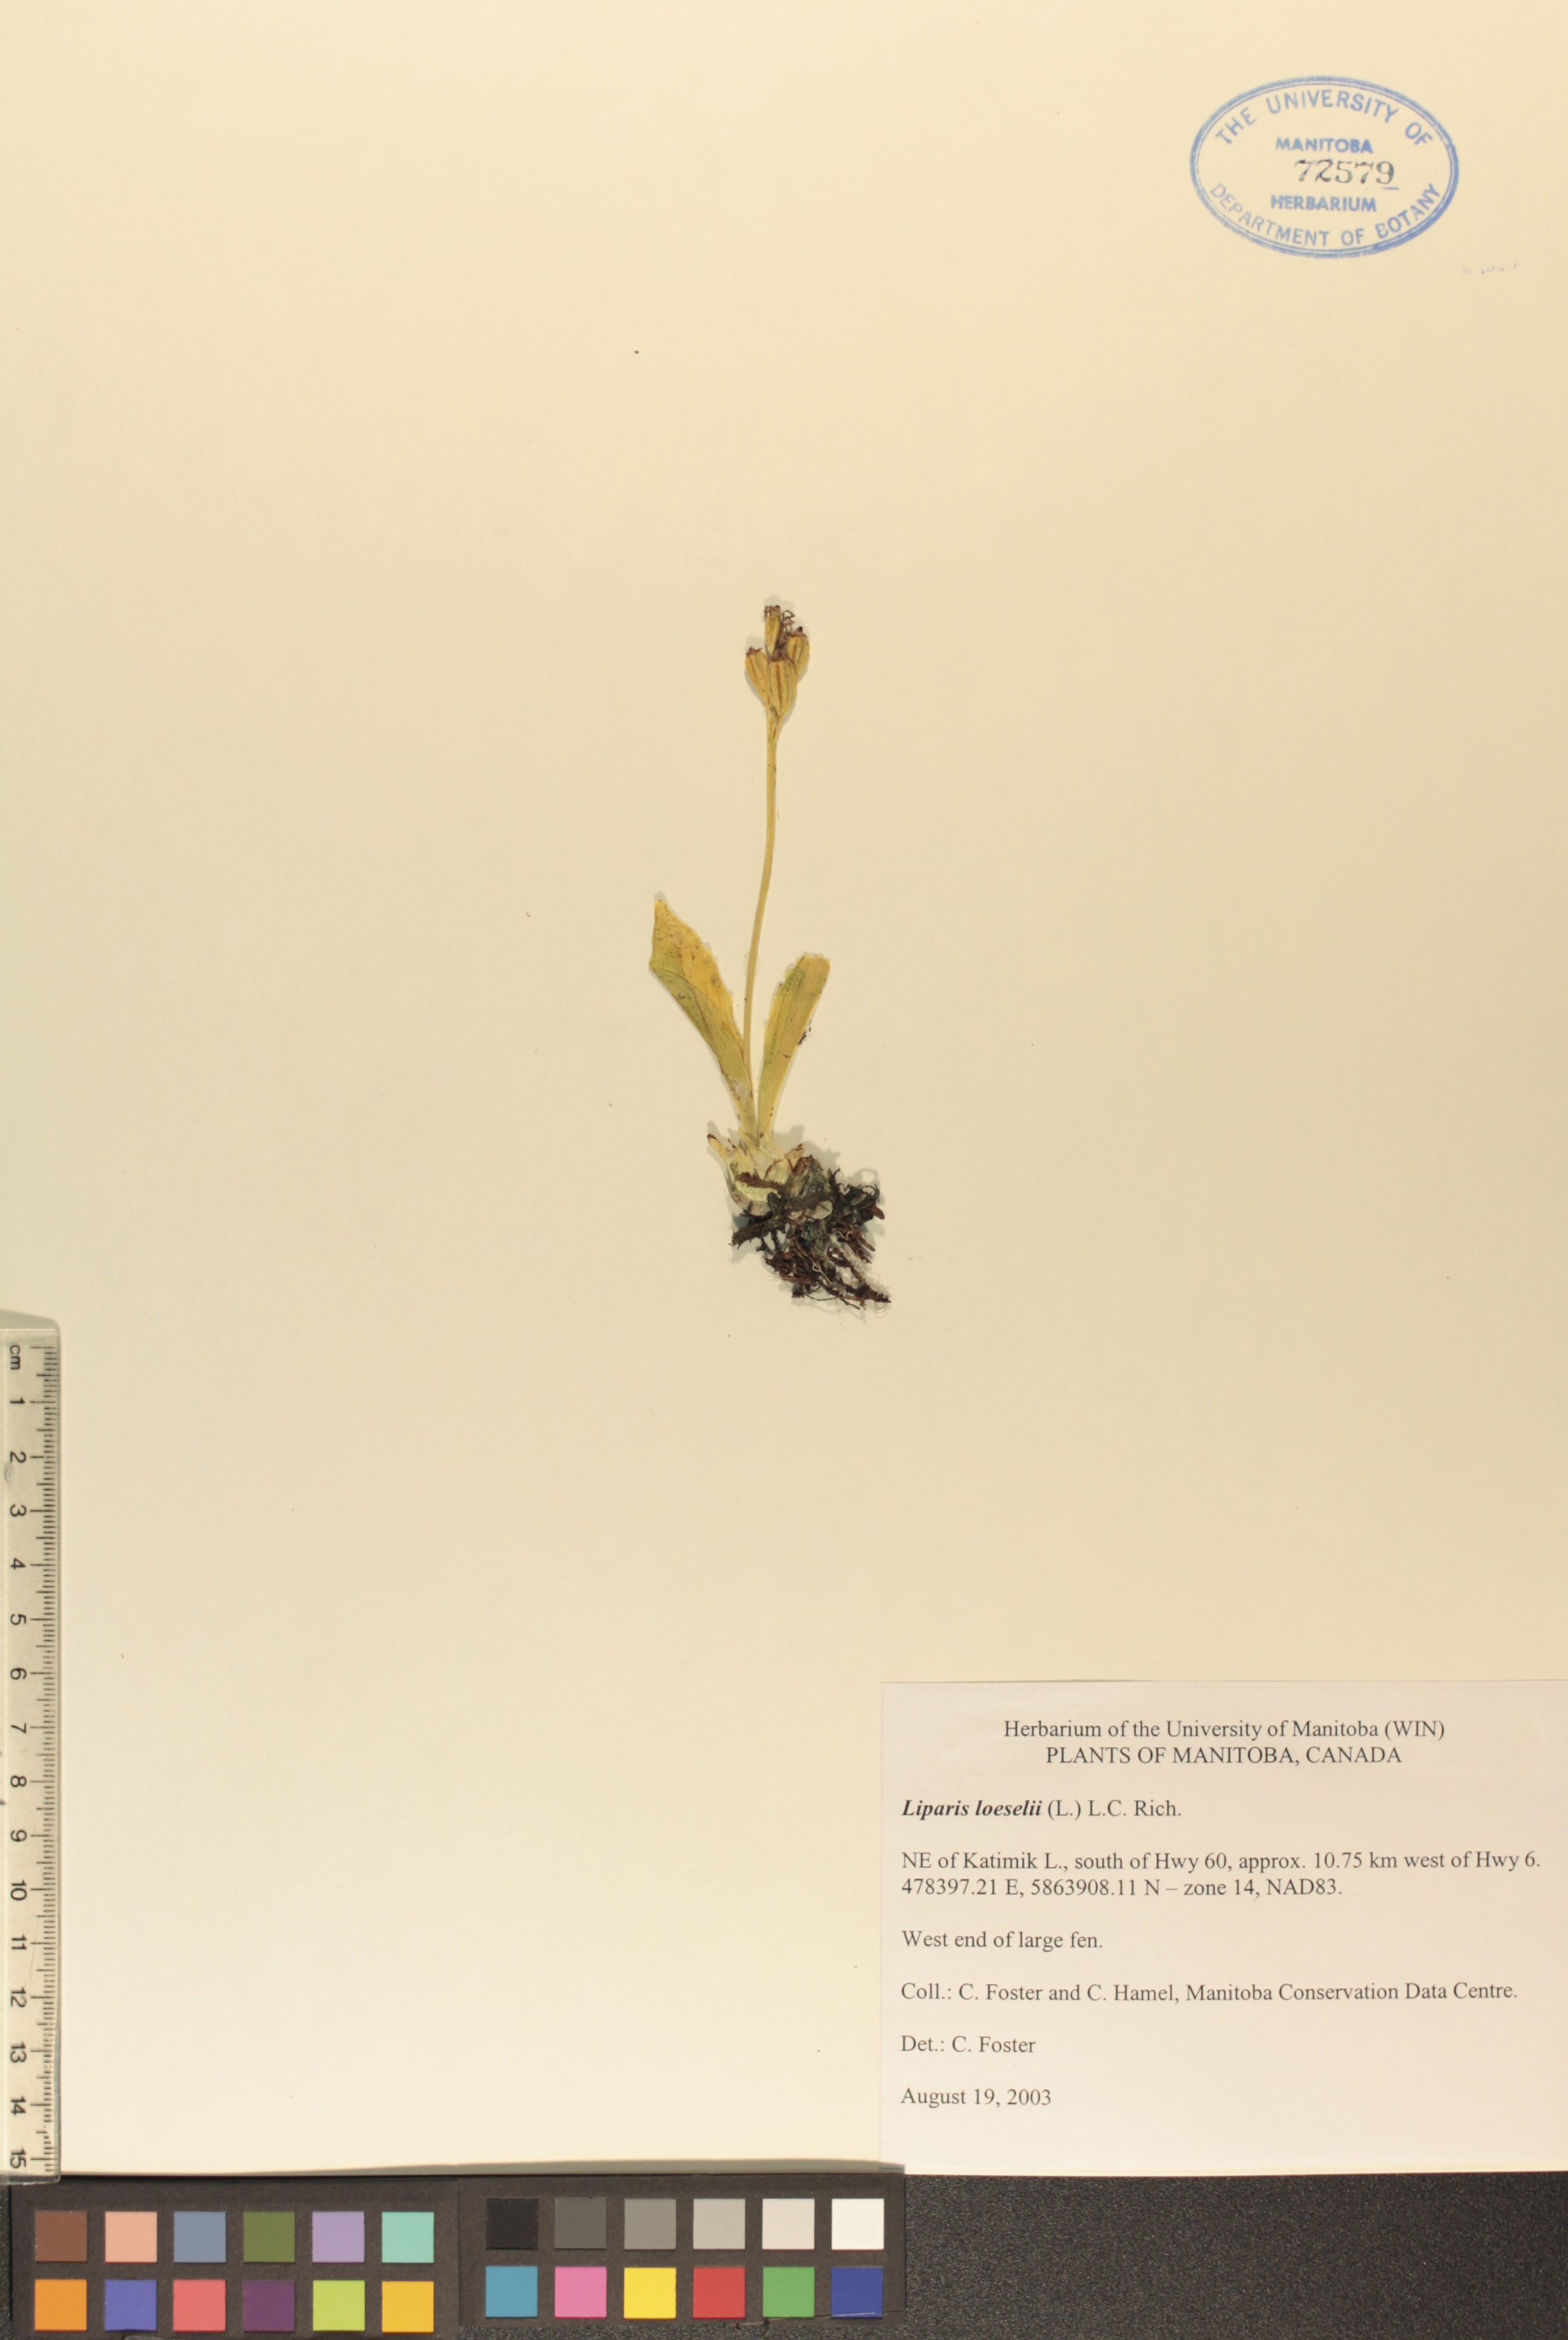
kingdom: Animalia
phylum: Arthropoda
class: Insecta
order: Coleoptera
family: Curculionidae
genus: Liparis
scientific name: Liparis loeselii
